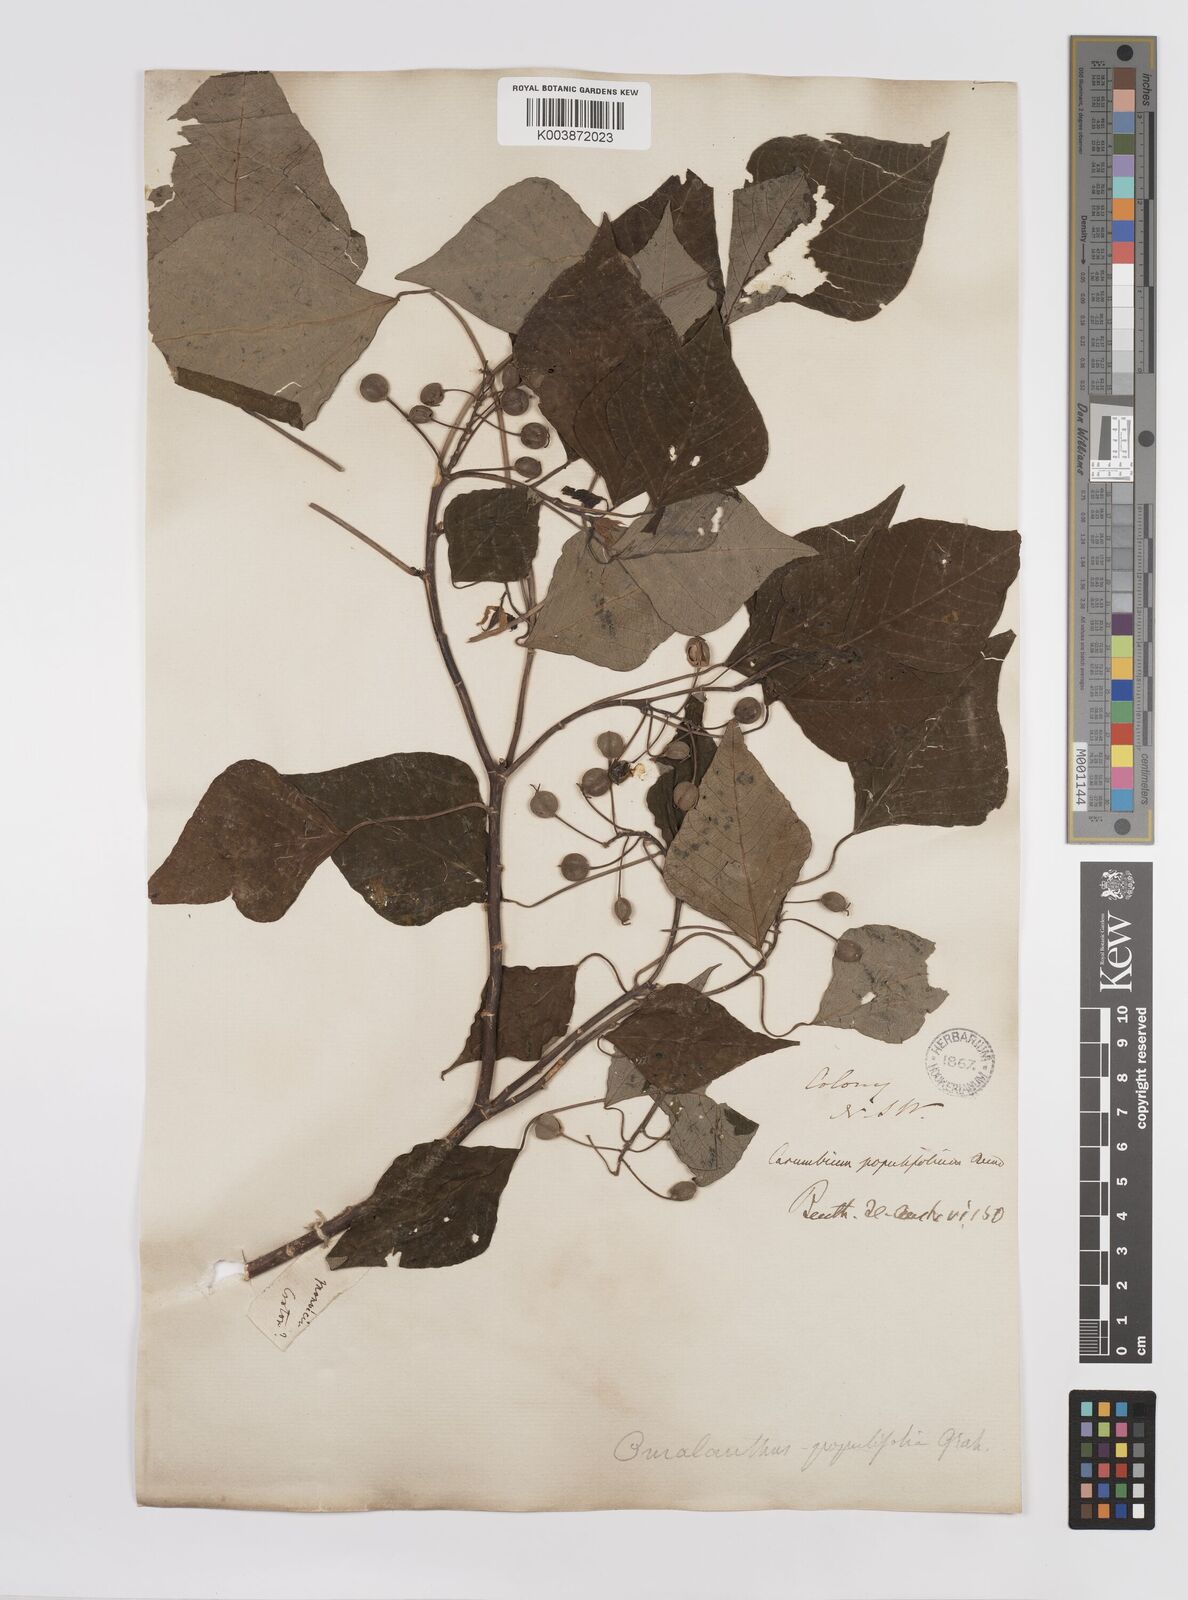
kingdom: Plantae
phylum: Tracheophyta
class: Magnoliopsida
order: Malpighiales
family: Euphorbiaceae
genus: Homalanthus
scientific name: Homalanthus populifolius
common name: Queensland poplar
